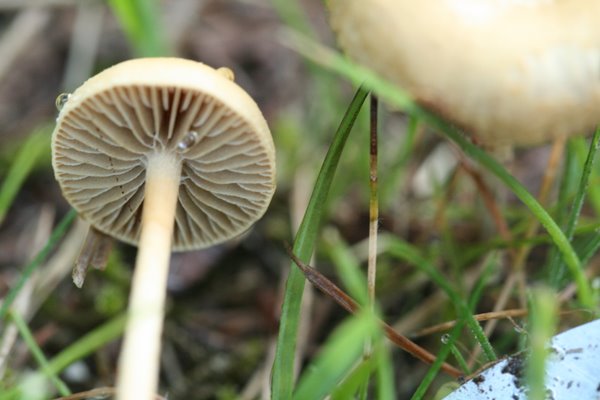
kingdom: Fungi
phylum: Basidiomycota
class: Agaricomycetes
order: Agaricales
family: Strophariaceae
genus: Agrocybe
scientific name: Agrocybe pediades
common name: almindelig agerhat
